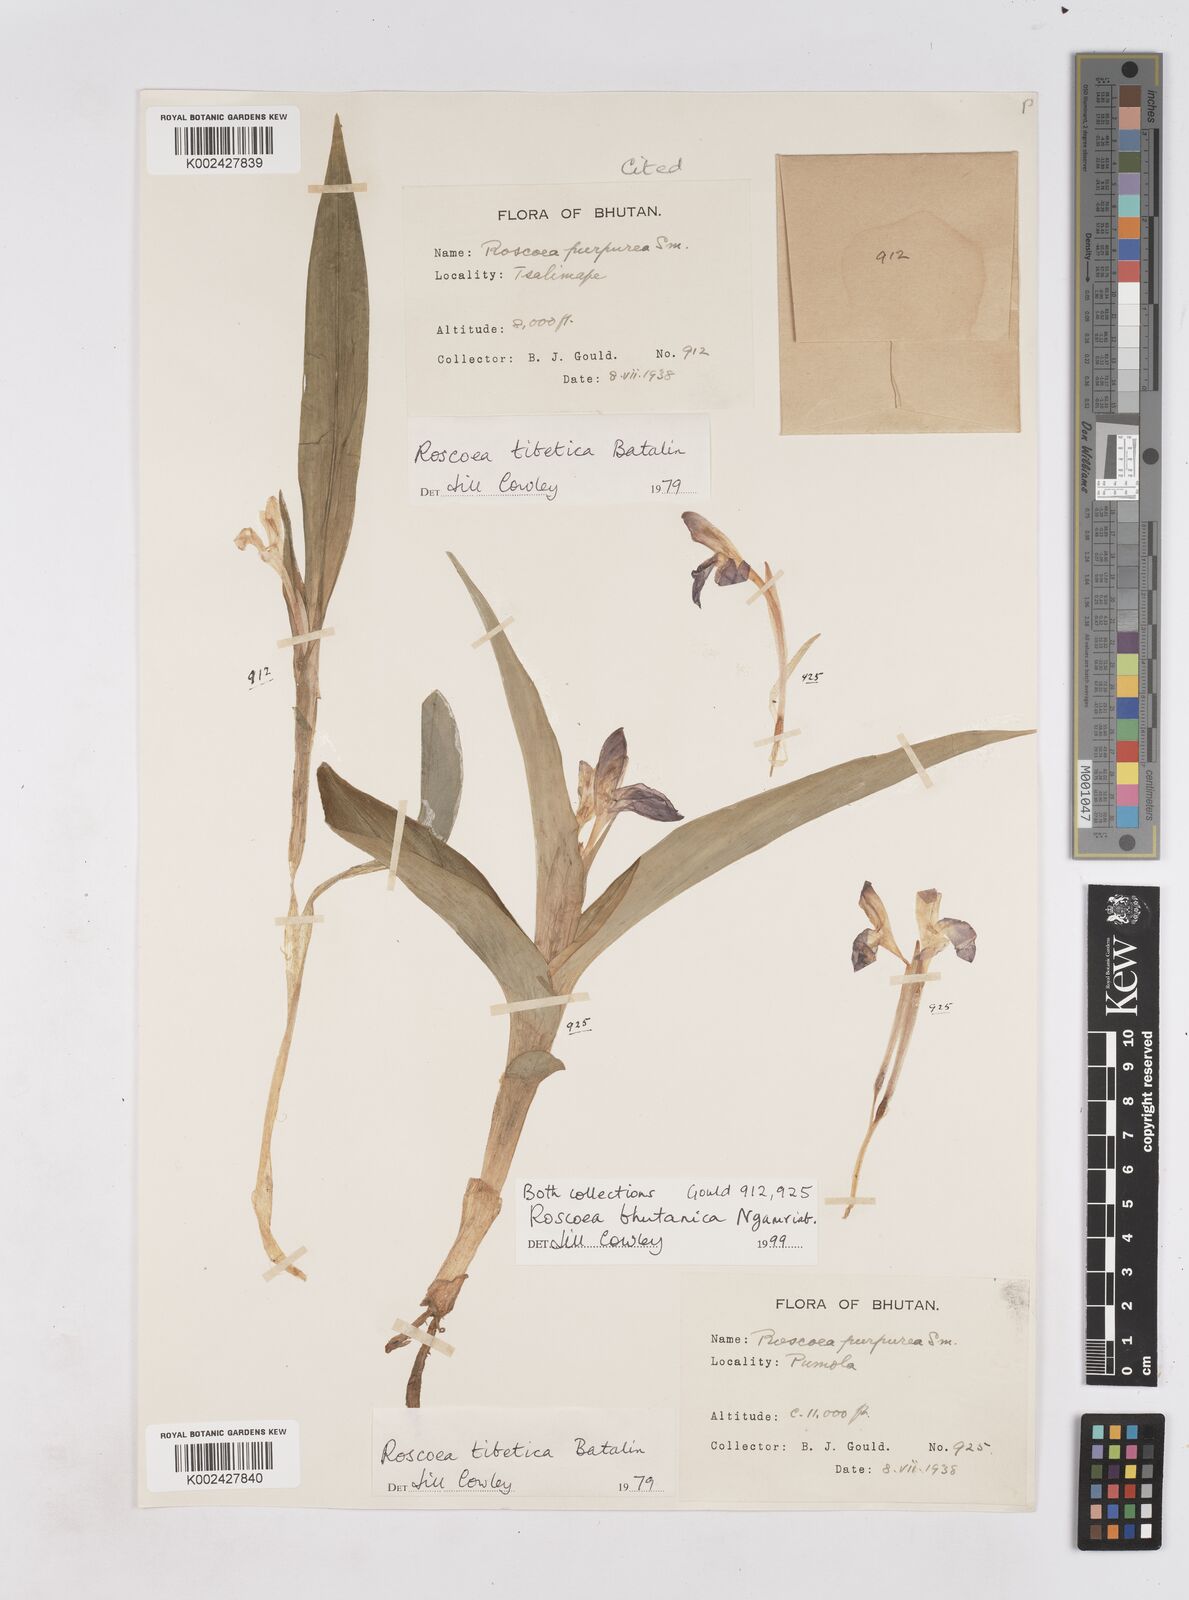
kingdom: Plantae
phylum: Tracheophyta
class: Liliopsida
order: Zingiberales
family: Zingiberaceae
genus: Roscoea
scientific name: Roscoea bhutanica
